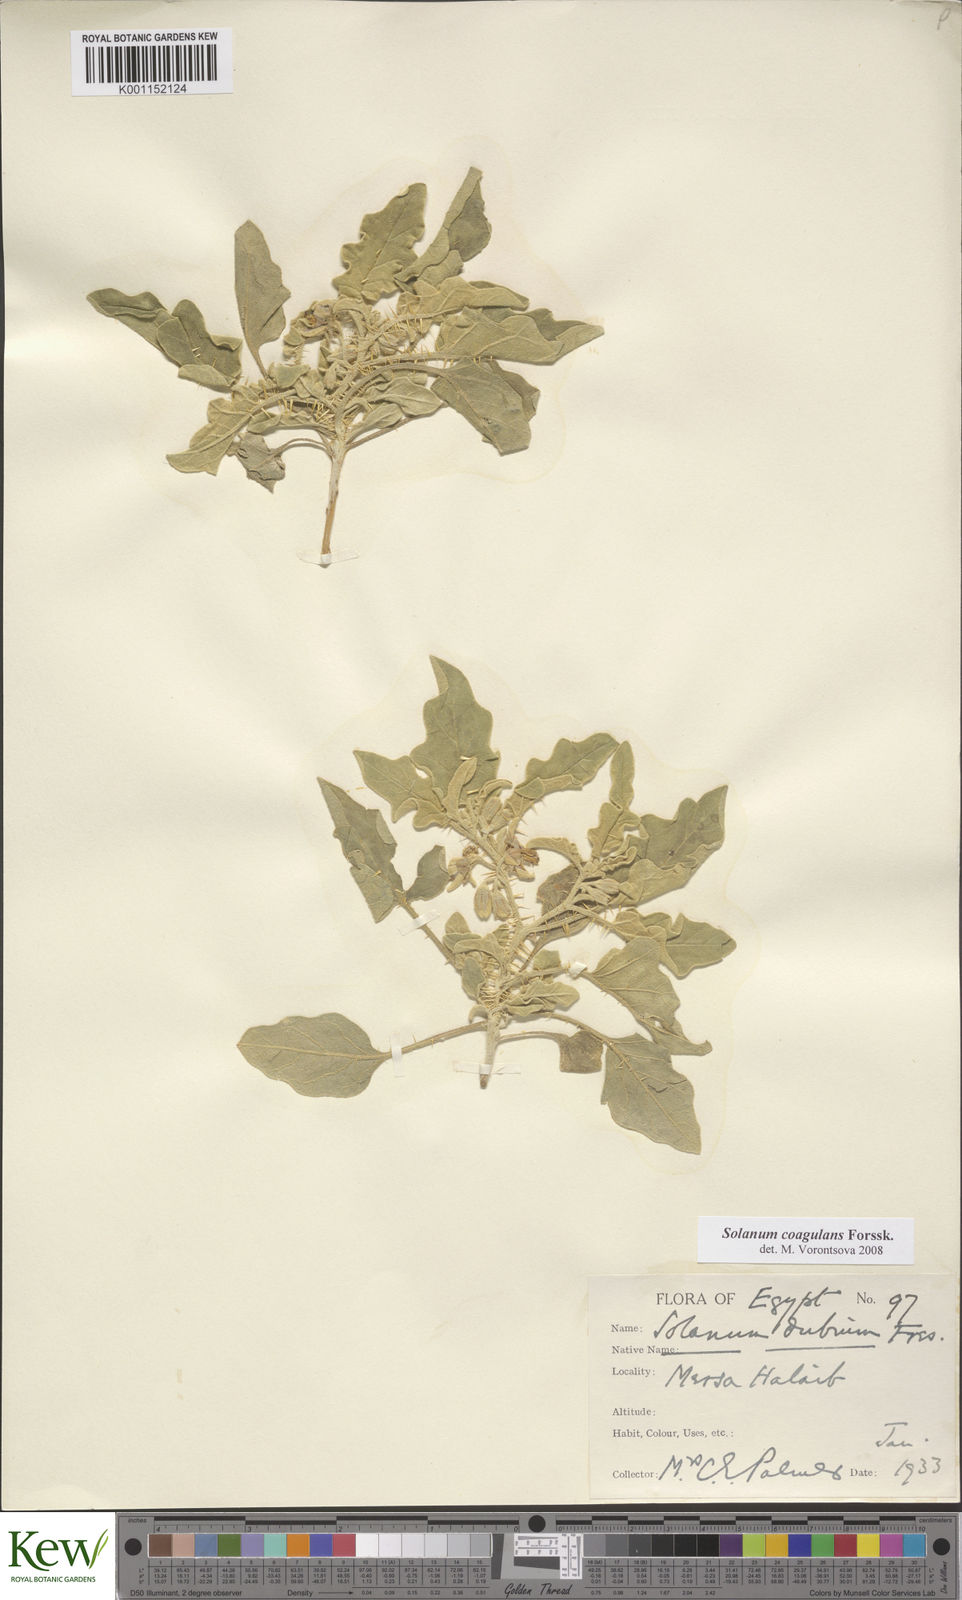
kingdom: Plantae
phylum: Tracheophyta
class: Magnoliopsida
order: Solanales
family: Solanaceae
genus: Solanum
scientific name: Solanum coagulans
